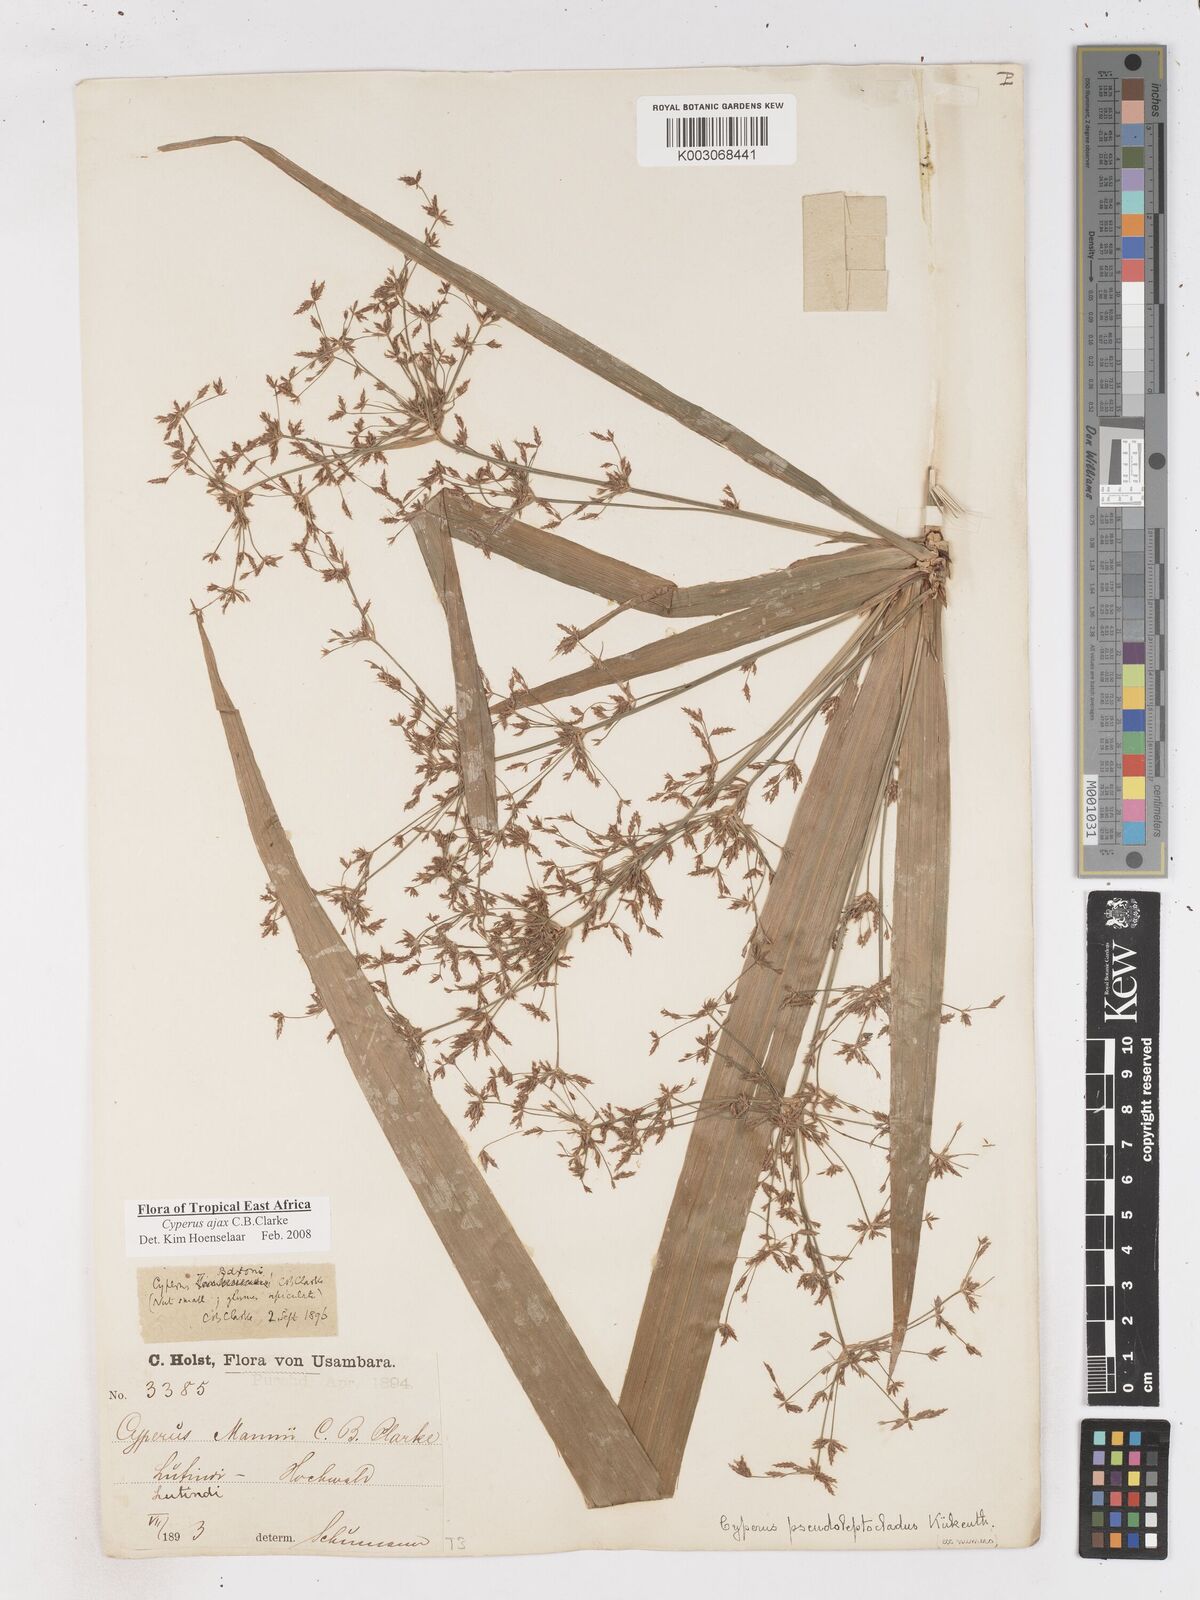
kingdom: Plantae
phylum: Tracheophyta
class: Liliopsida
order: Poales
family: Cyperaceae
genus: Cyperus
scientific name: Cyperus ajax
